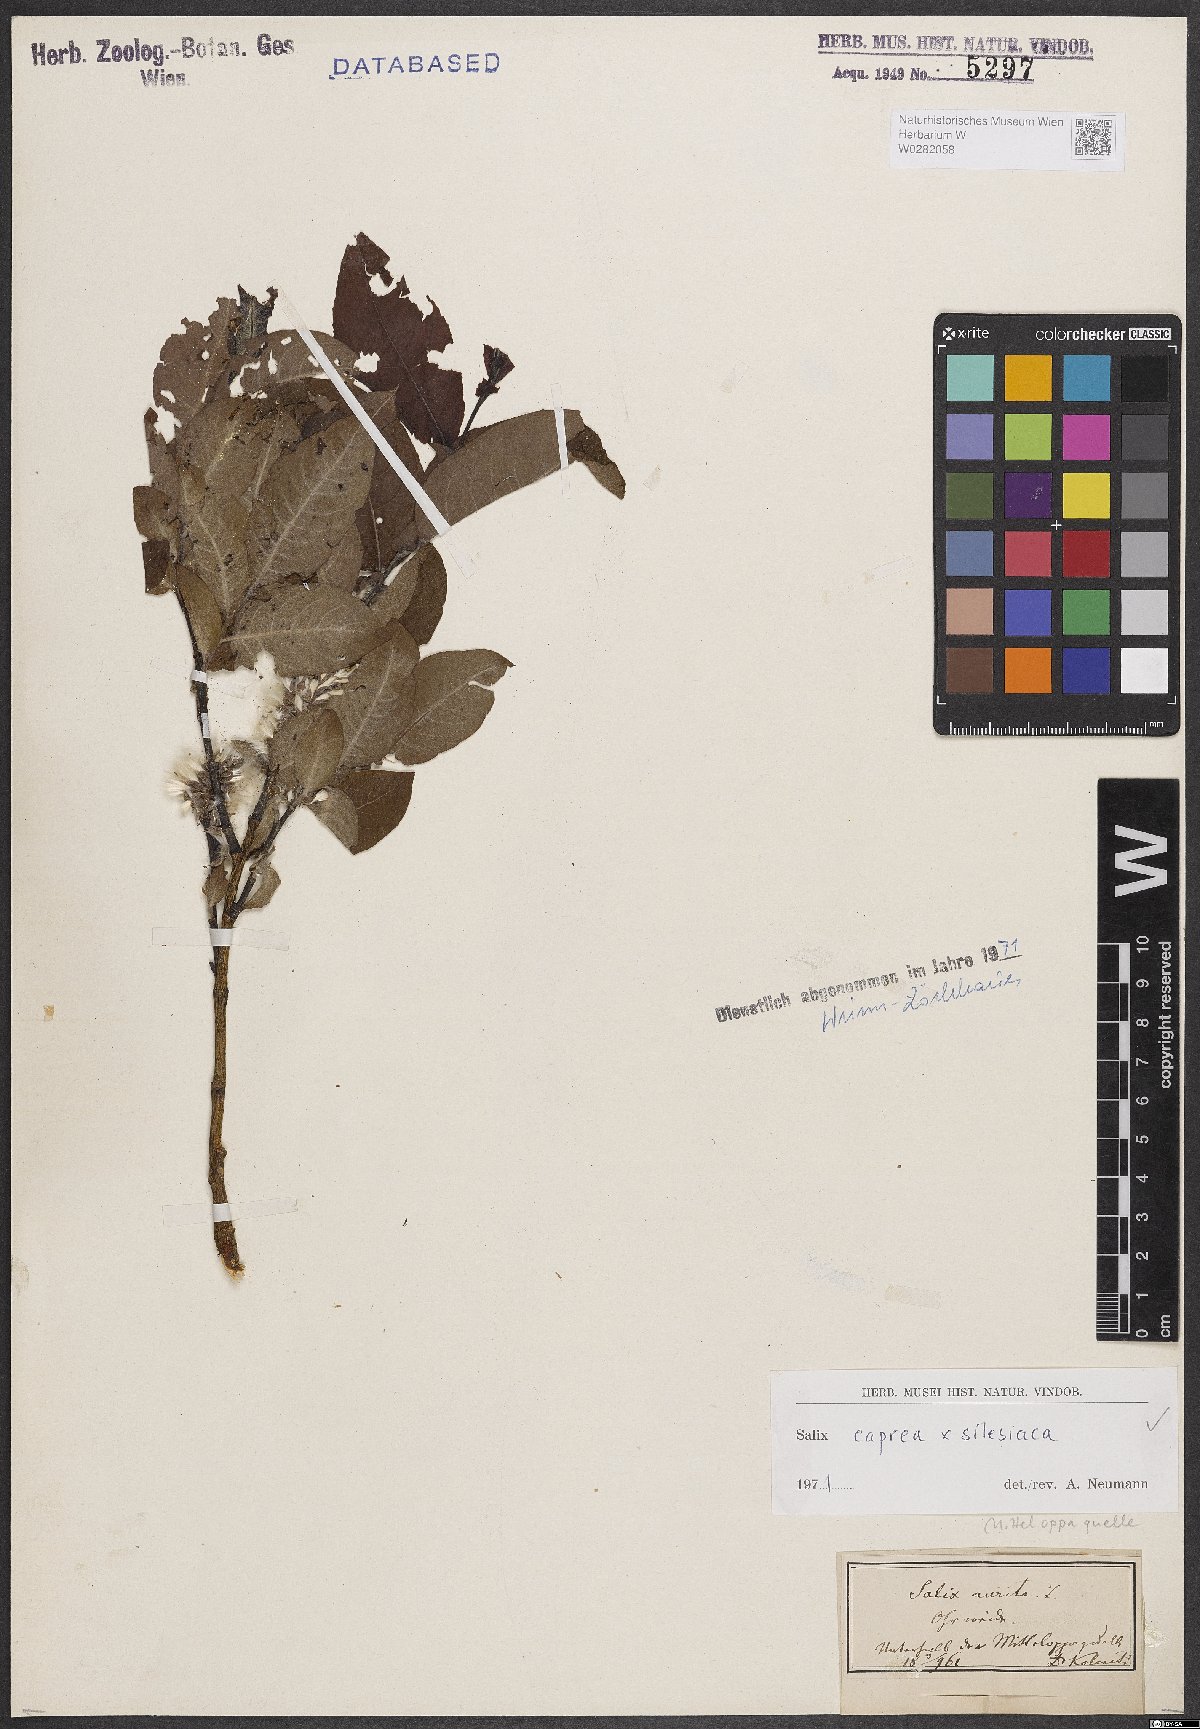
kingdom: Plantae
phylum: Tracheophyta
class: Magnoliopsida
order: Malpighiales
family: Salicaceae
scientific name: Salicaceae
